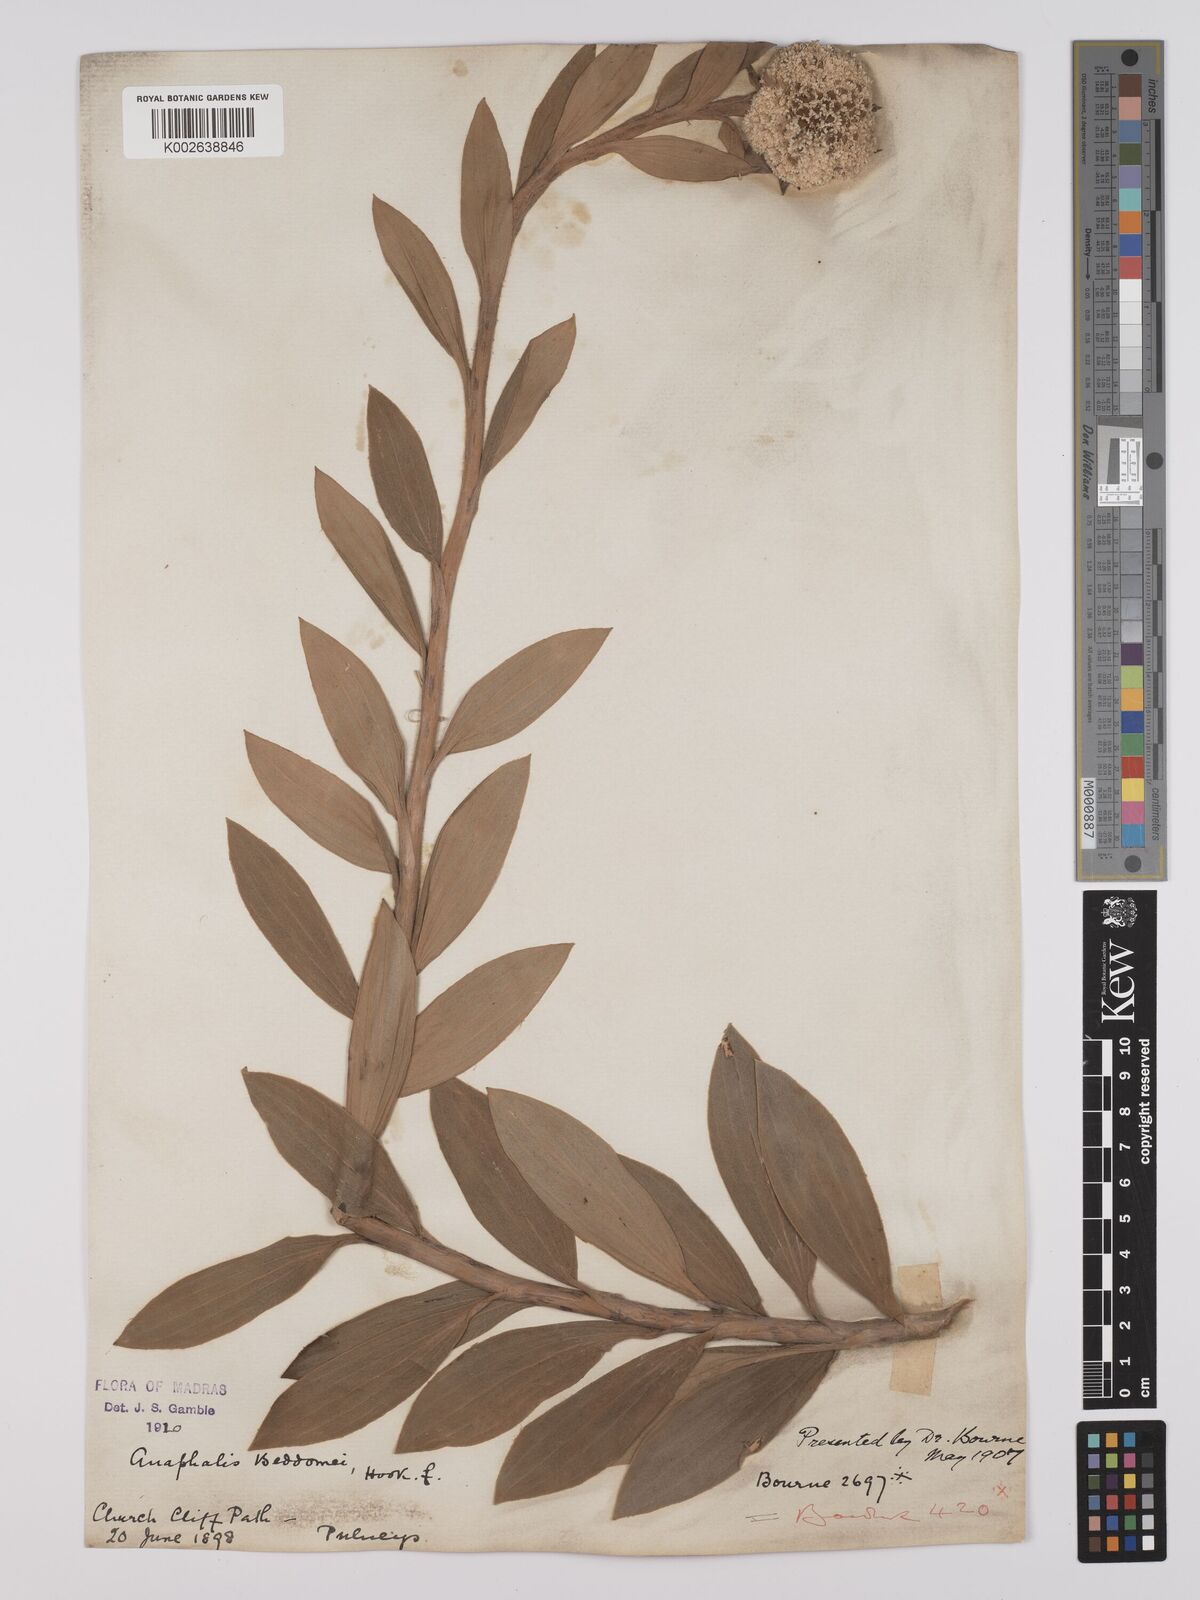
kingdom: Plantae
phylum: Tracheophyta
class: Magnoliopsida
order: Asterales
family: Asteraceae
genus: Anaphalis
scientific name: Anaphalis beddomei
